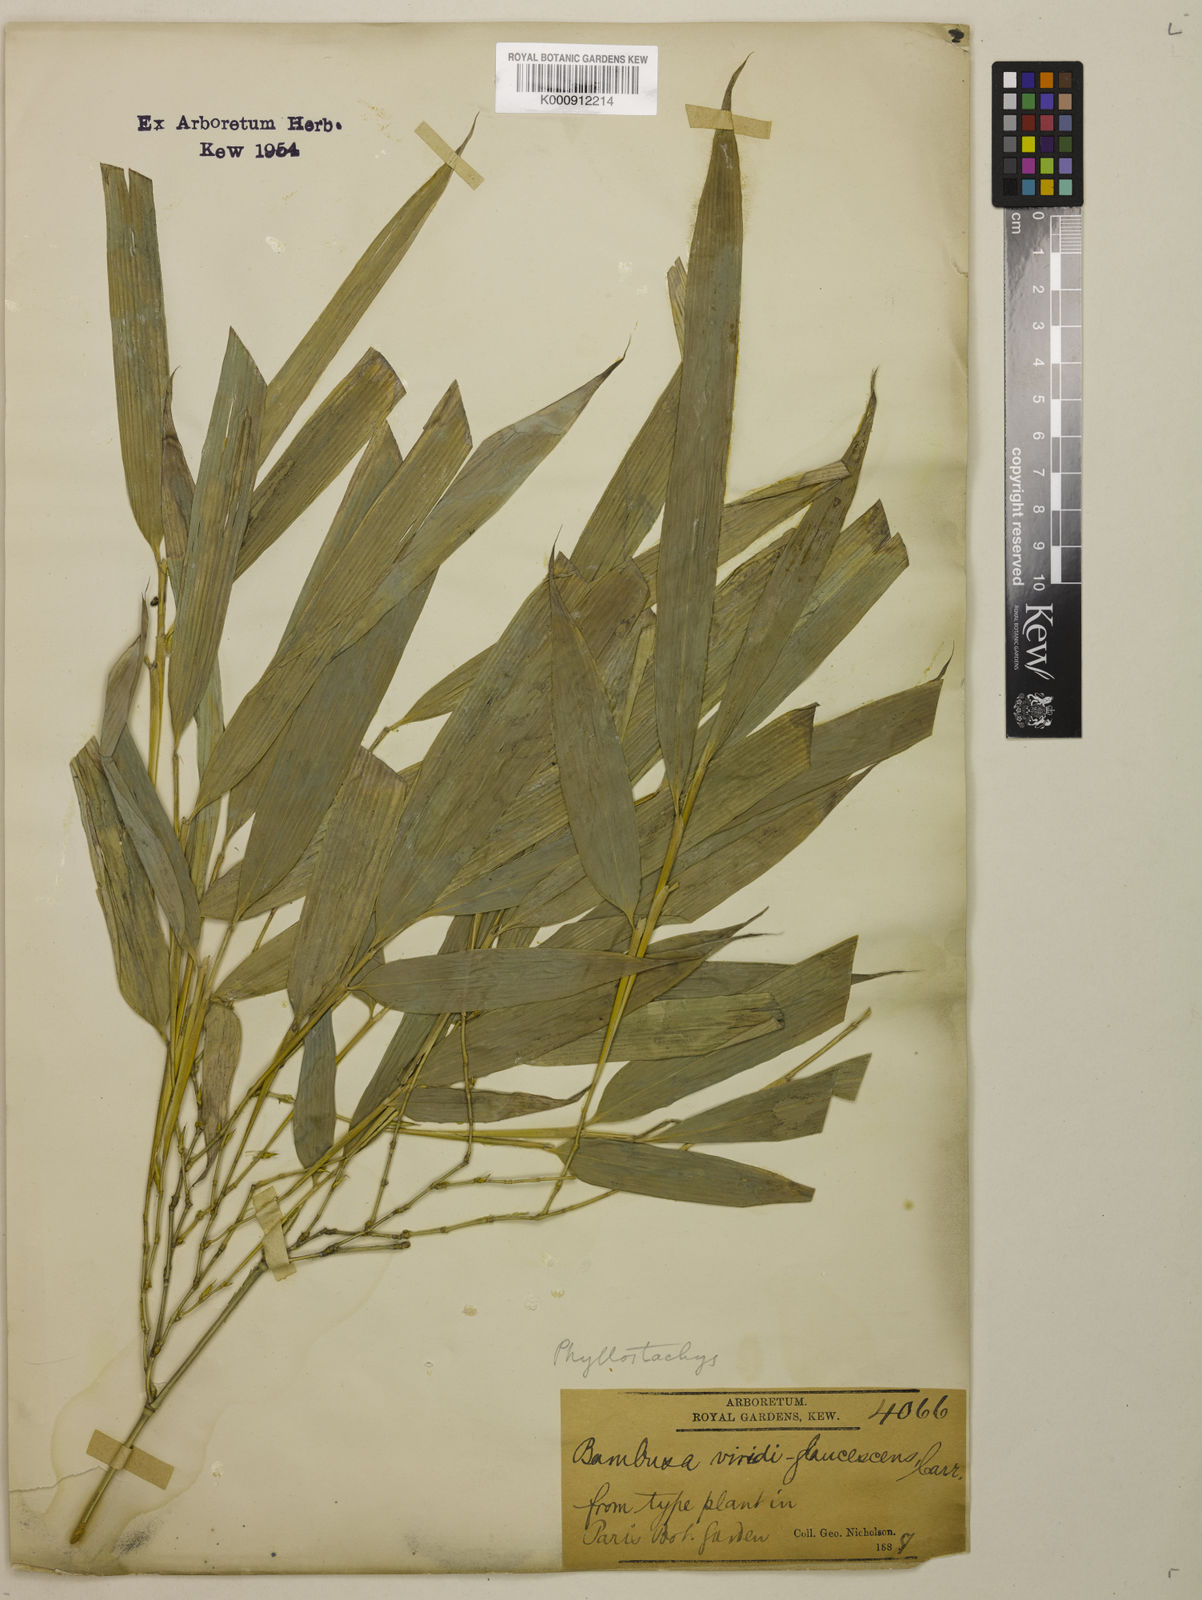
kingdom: Plantae
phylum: Tracheophyta
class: Liliopsida
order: Poales
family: Poaceae
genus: Phyllostachys
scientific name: Phyllostachys
